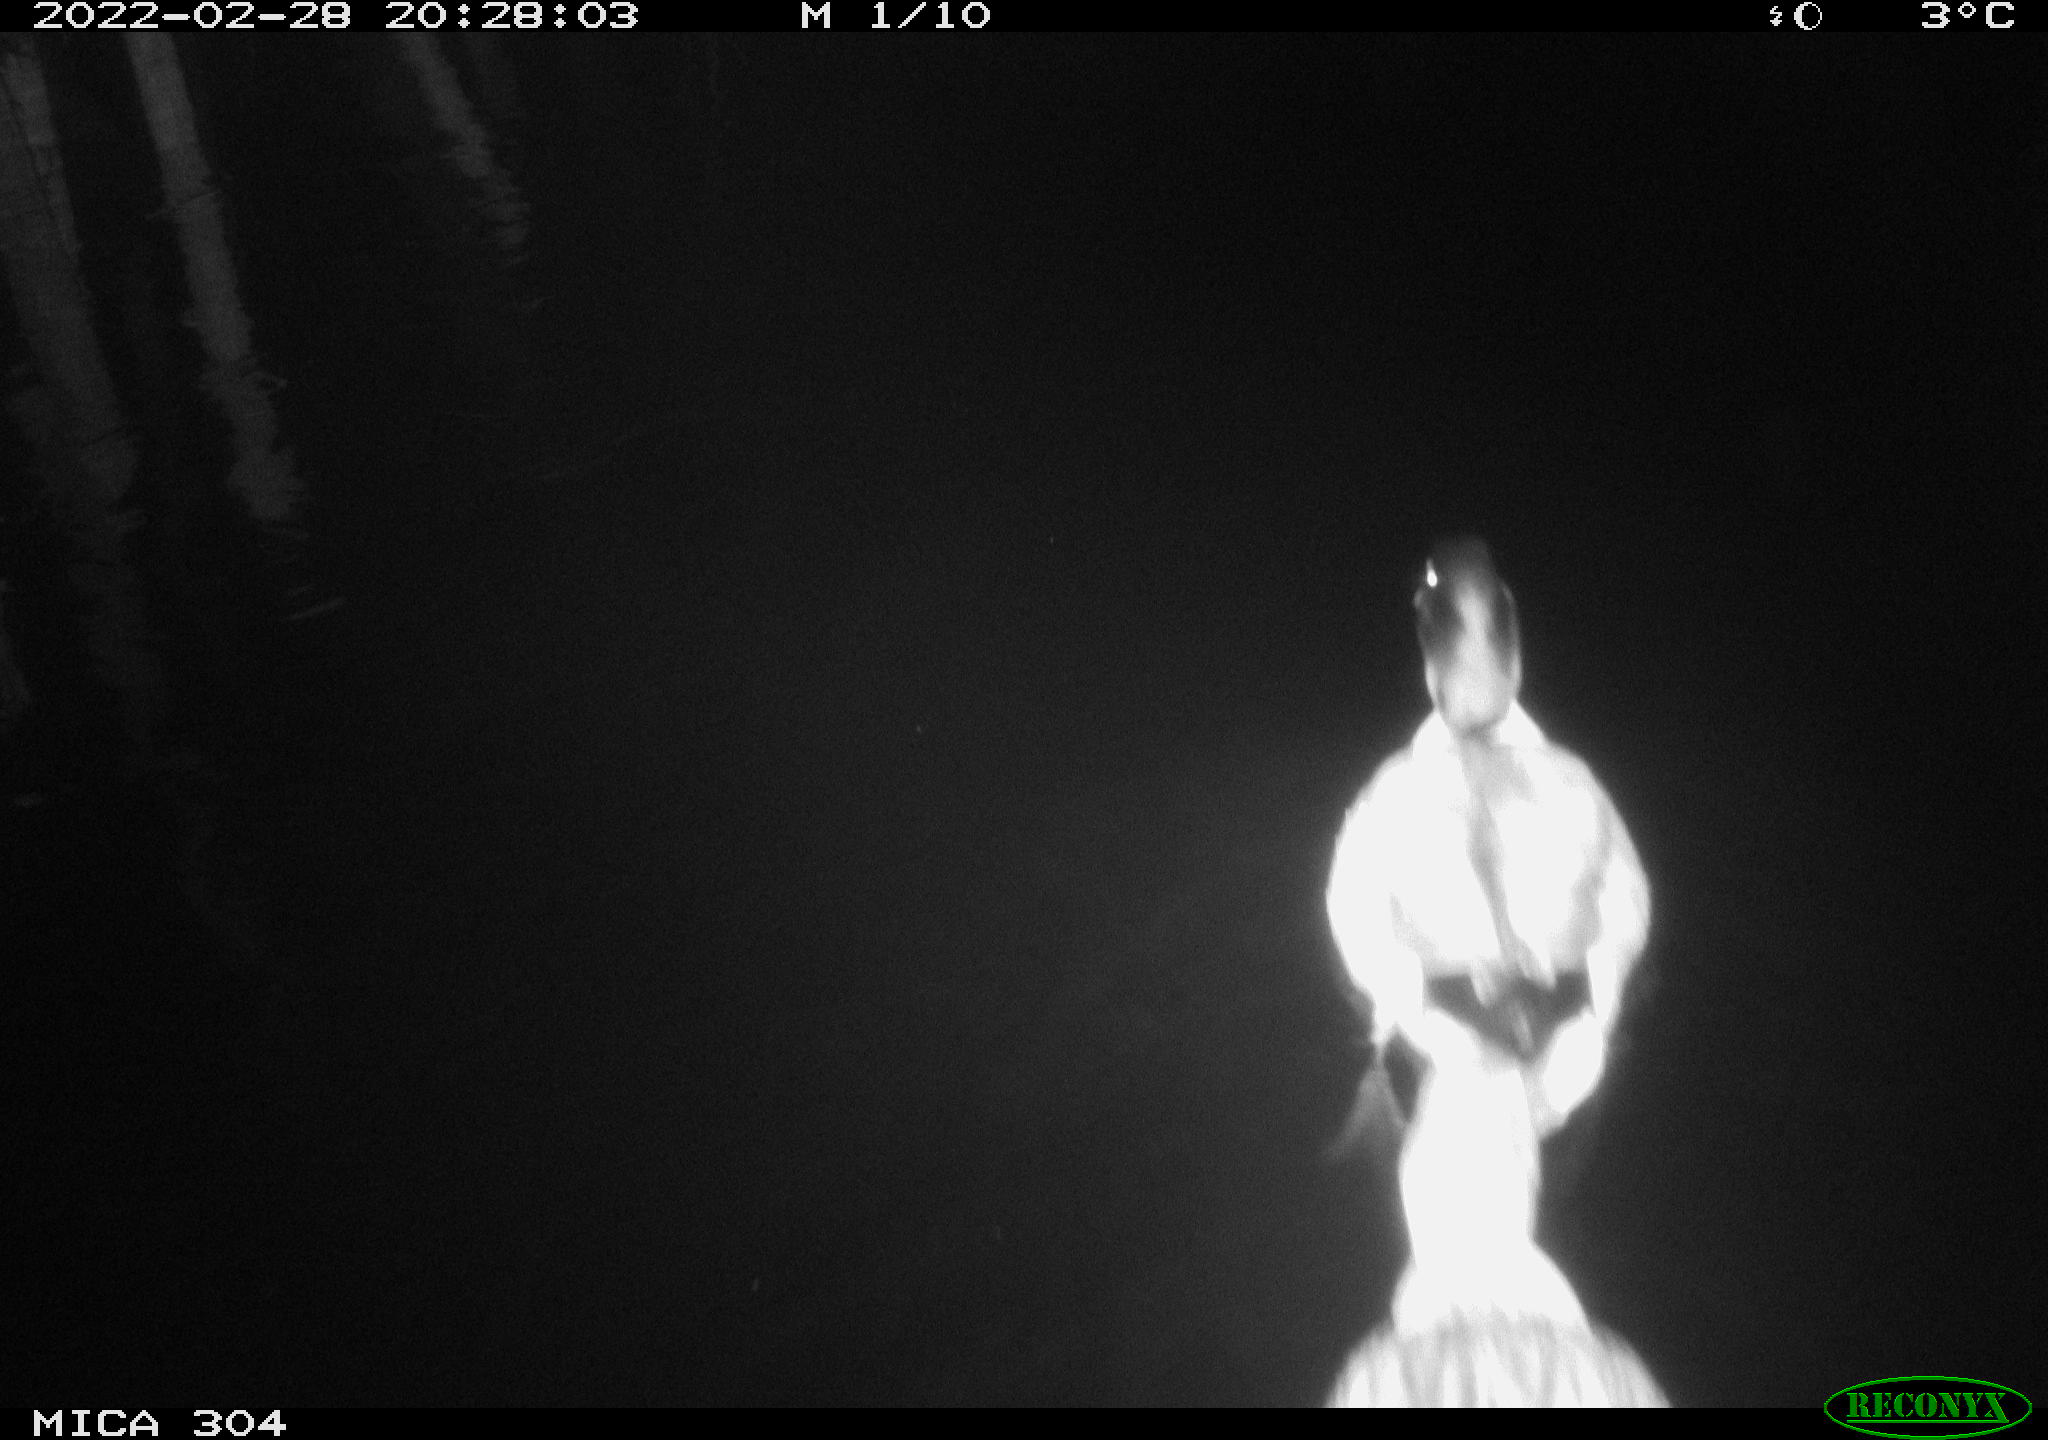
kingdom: Animalia
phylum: Chordata
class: Aves
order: Pelecaniformes
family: Ardeidae
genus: Ardea
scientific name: Ardea
